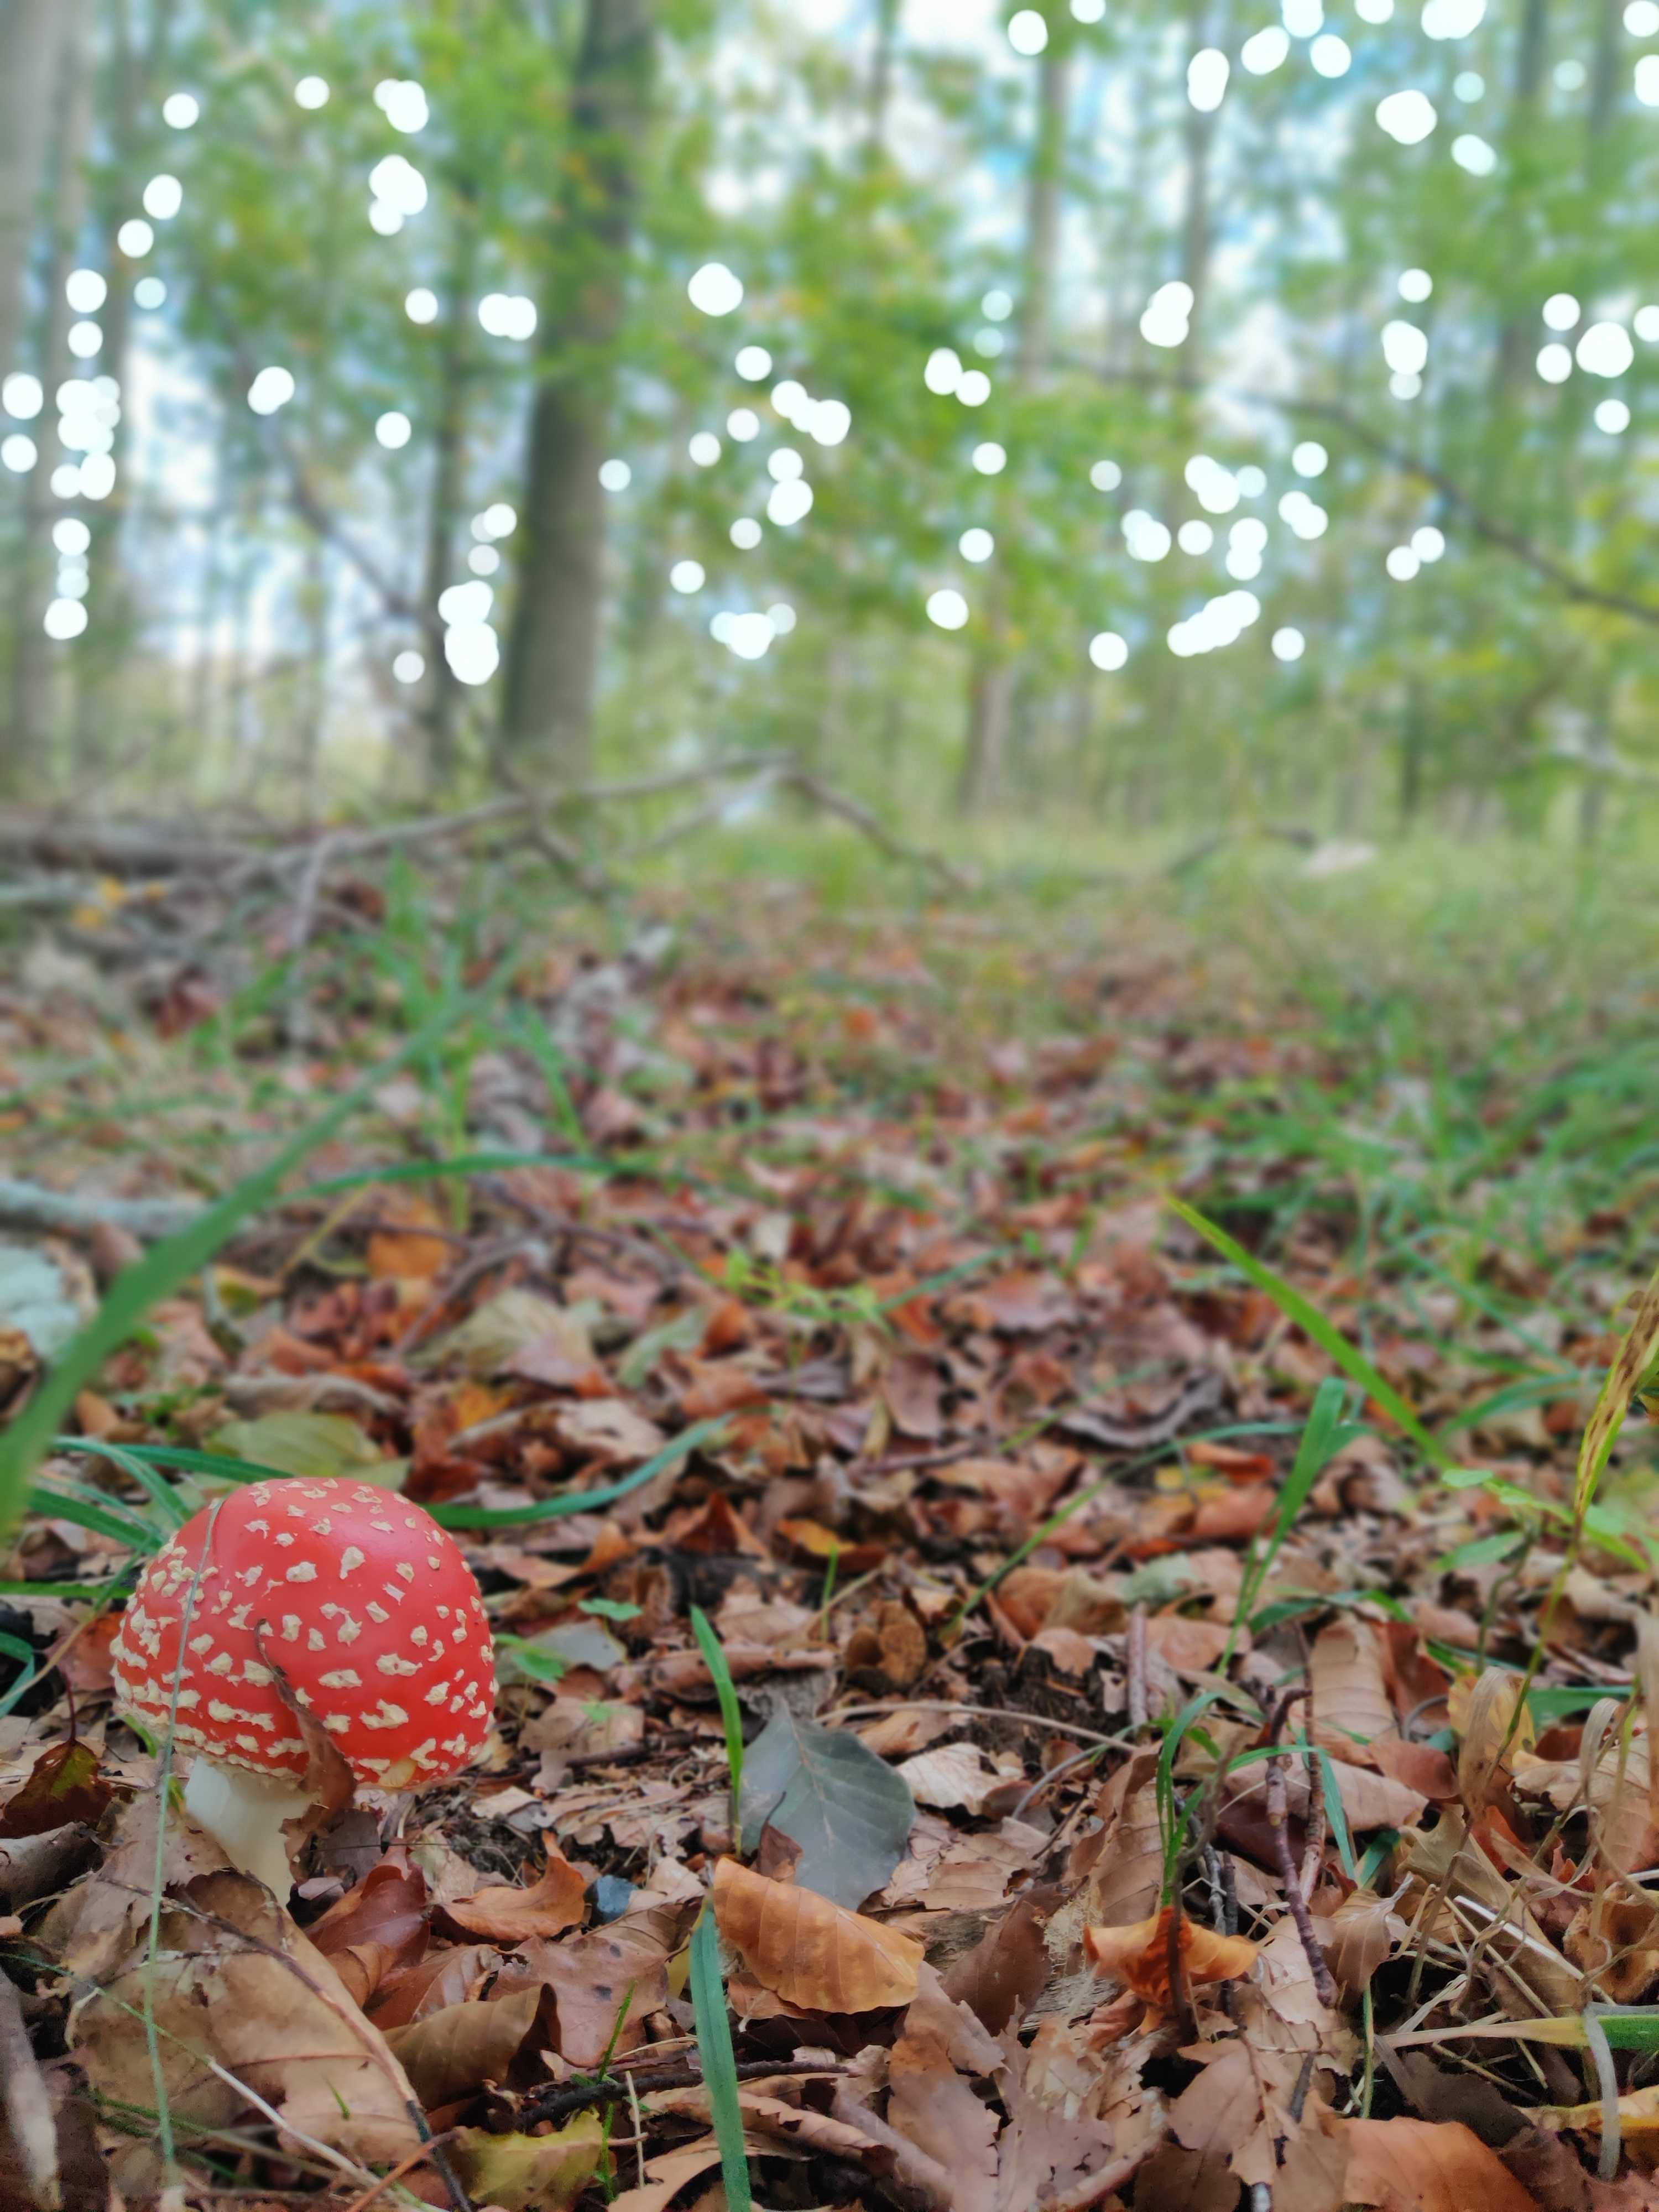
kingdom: Fungi
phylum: Basidiomycota
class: Agaricomycetes
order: Agaricales
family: Amanitaceae
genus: Amanita
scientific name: Amanita muscaria
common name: rød fluesvamp
